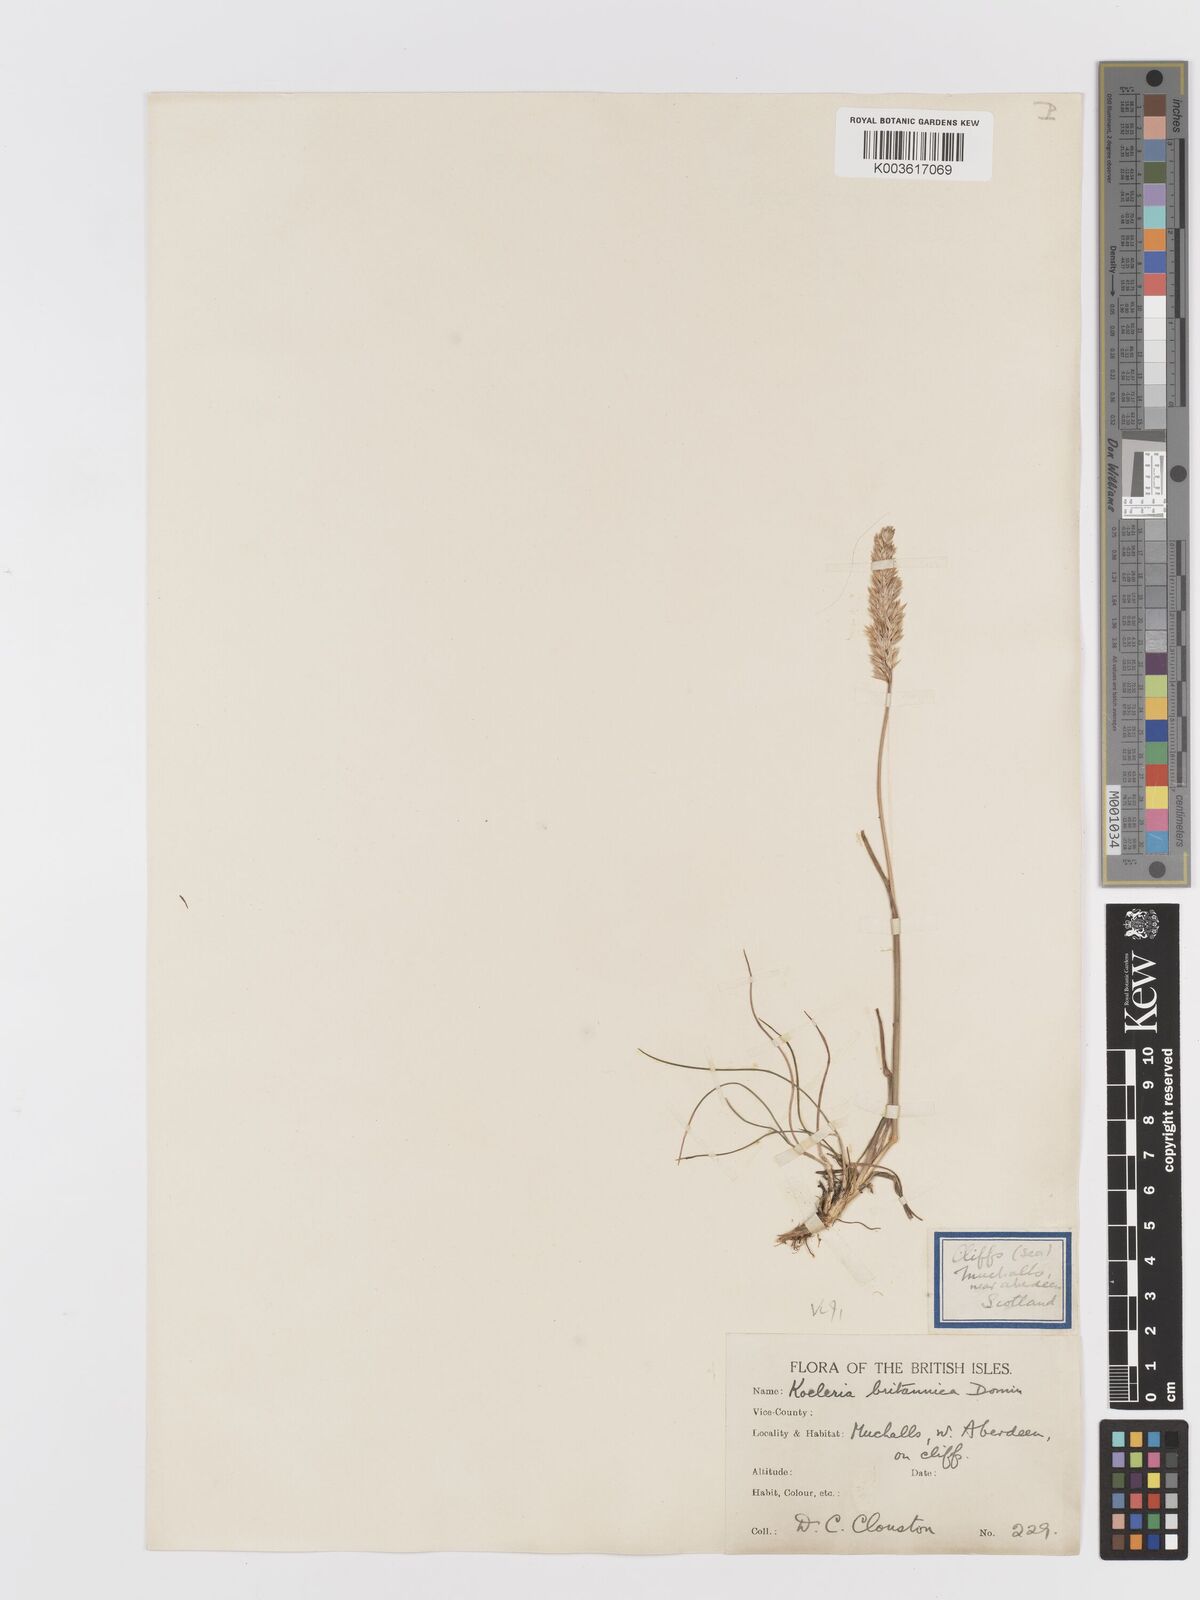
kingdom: Plantae
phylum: Tracheophyta
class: Liliopsida
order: Poales
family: Poaceae
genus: Koeleria
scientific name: Koeleria macrantha
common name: Crested hair-grass
